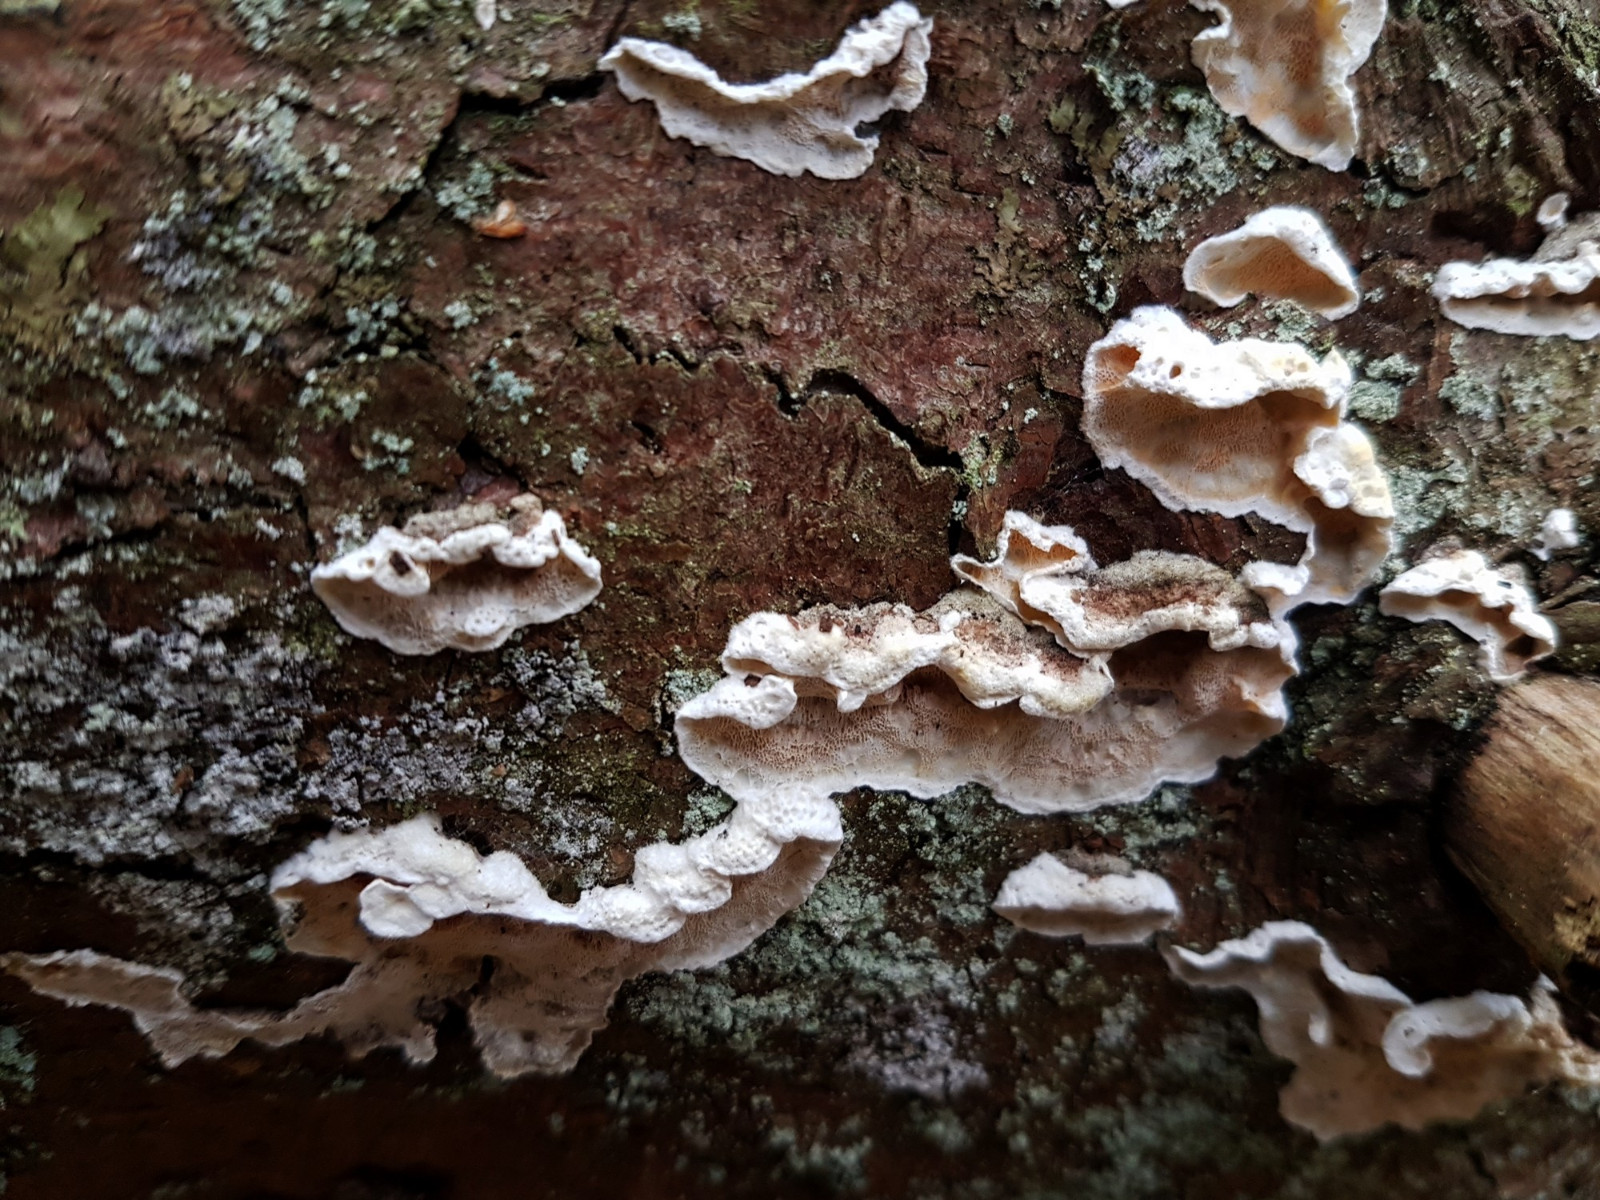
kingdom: Fungi
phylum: Basidiomycota
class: Agaricomycetes
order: Polyporales
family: Incrustoporiaceae
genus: Skeletocutis
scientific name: Skeletocutis amorpha
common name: orange krystalporesvamp
